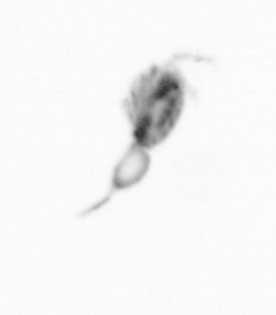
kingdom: Animalia
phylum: Arthropoda
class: Copepoda
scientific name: Copepoda
